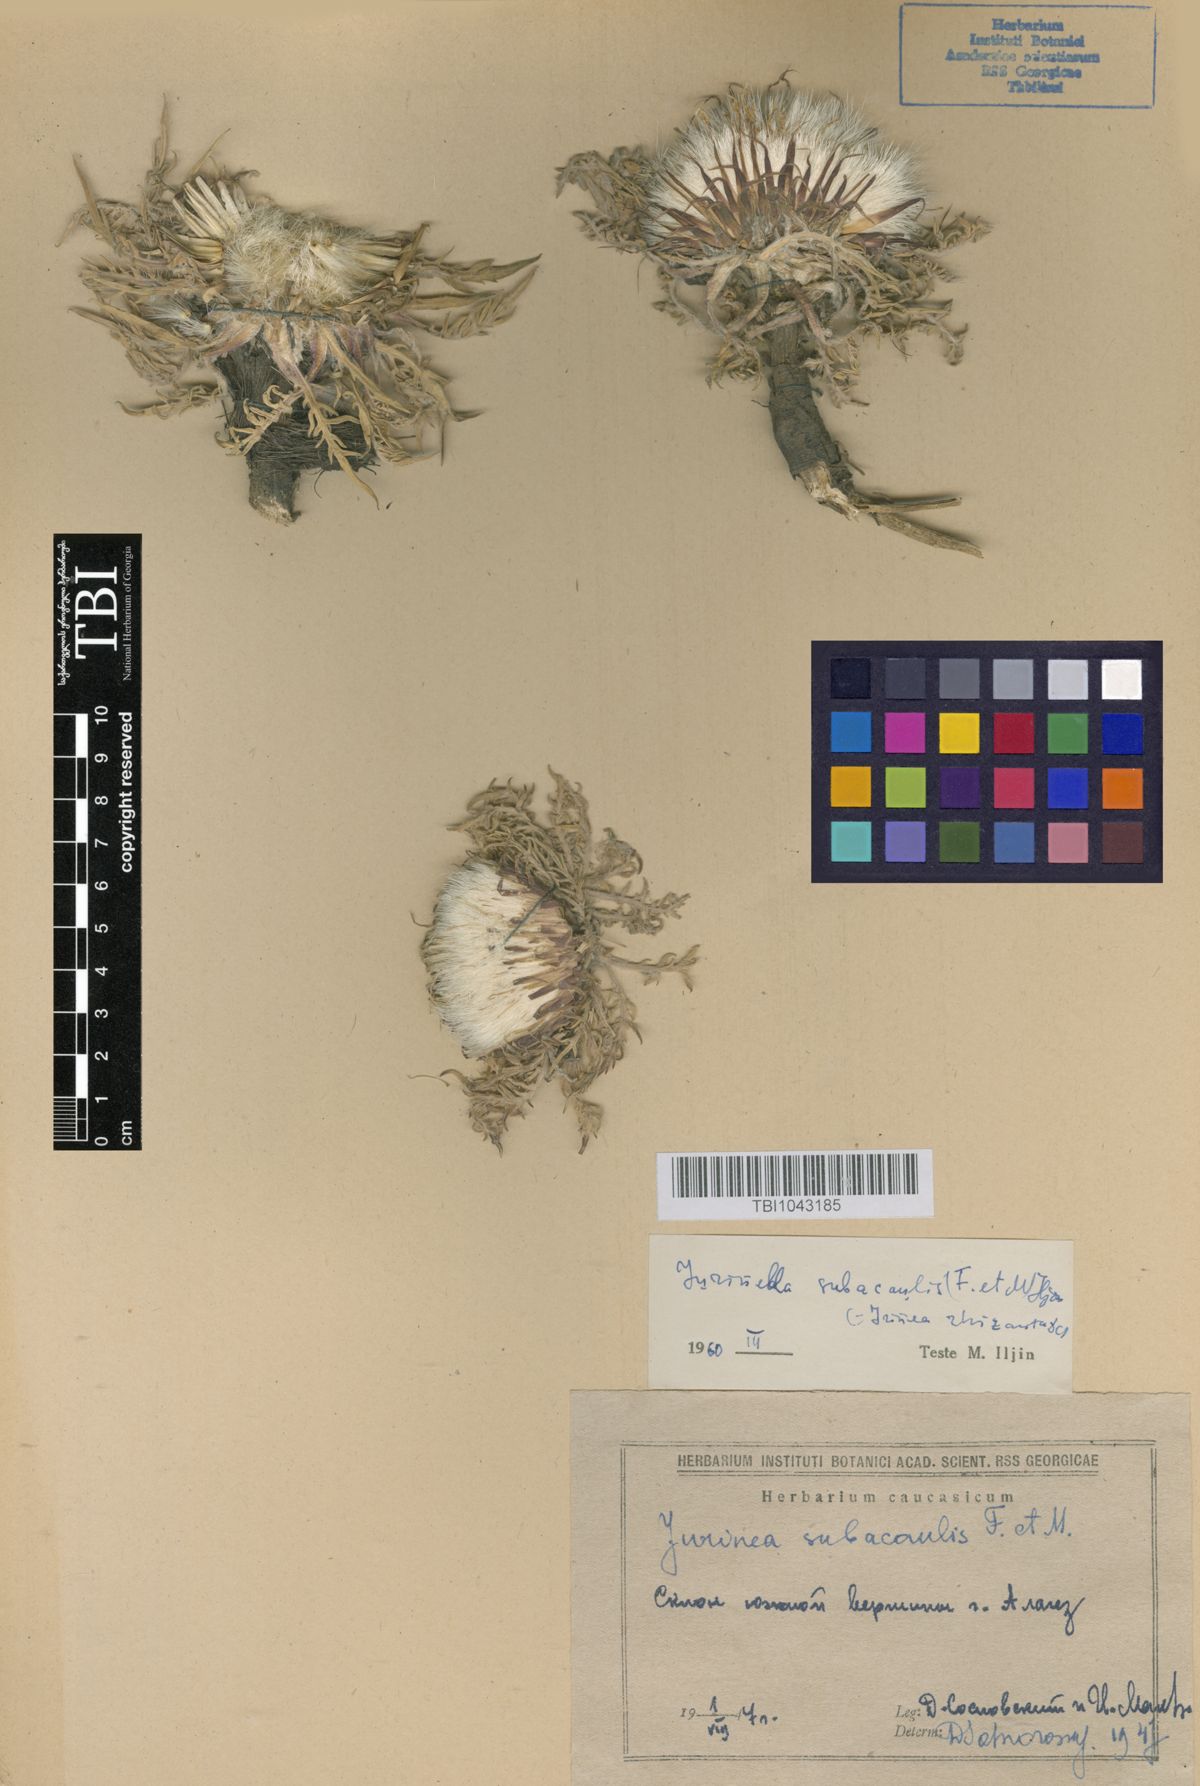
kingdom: Plantae
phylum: Tracheophyta
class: Magnoliopsida
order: Asterales
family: Asteraceae
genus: Jurinea
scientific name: Jurinea moschus
